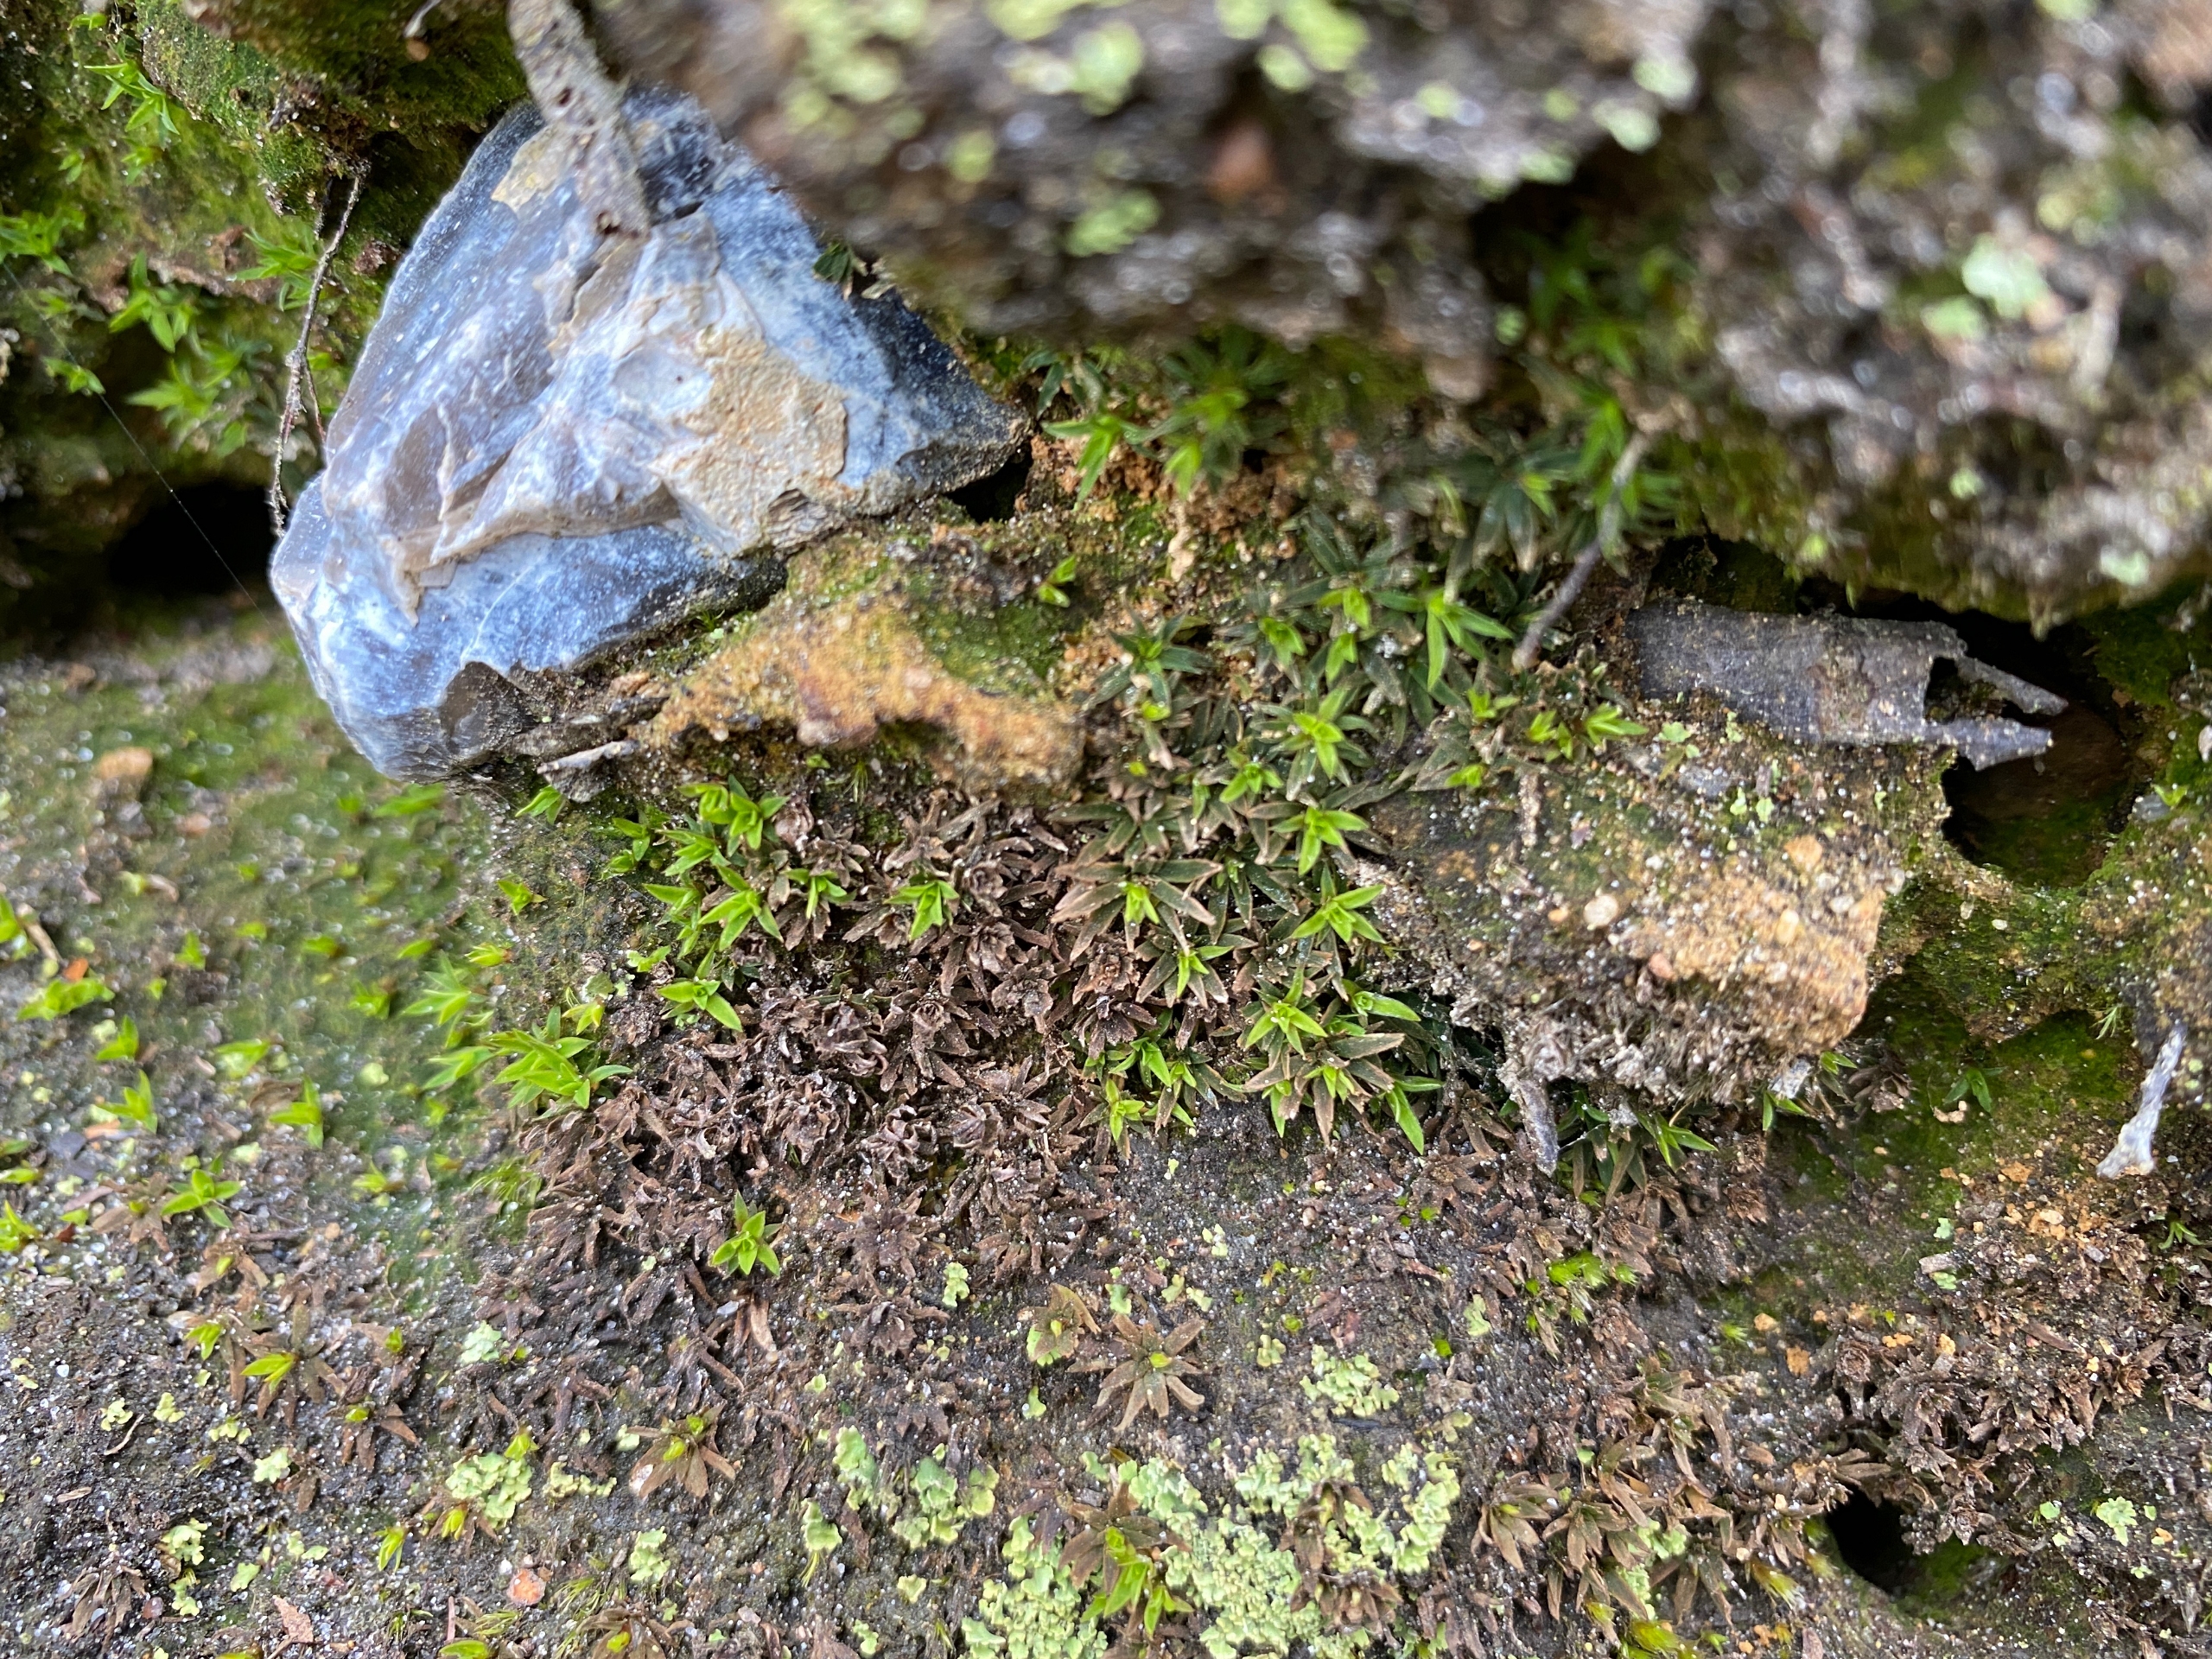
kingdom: Plantae
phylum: Bryophyta
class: Polytrichopsida
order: Polytrichales
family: Polytrichaceae
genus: Pogonatum
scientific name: Pogonatum aloides
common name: Smal urnekapsel
